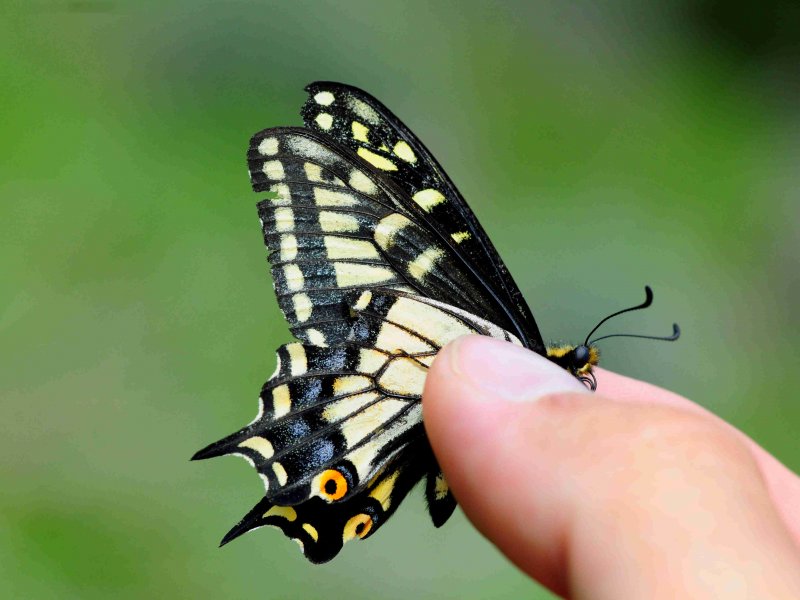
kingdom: Animalia
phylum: Arthropoda
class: Insecta
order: Lepidoptera
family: Papilionidae
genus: Papilio
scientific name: Papilio zelicaon
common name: Anise Swallowtail
